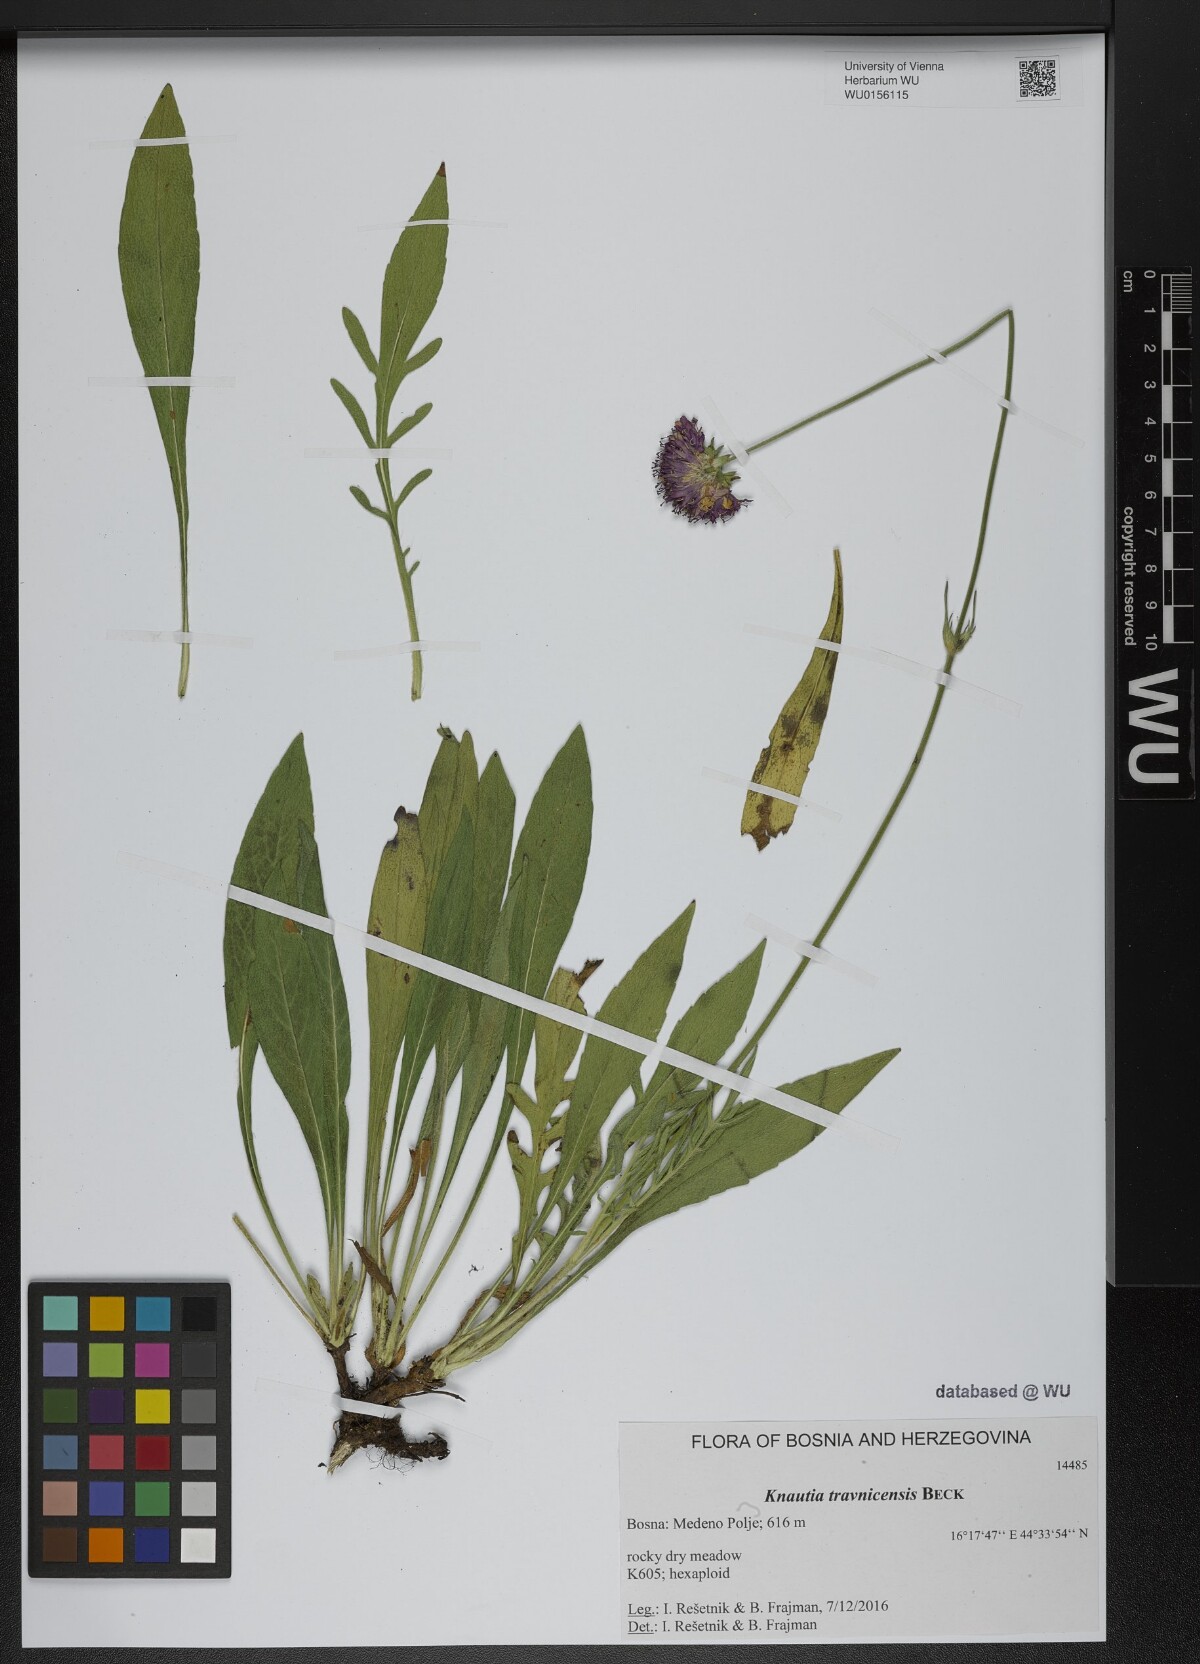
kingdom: Plantae
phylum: Tracheophyta
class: Magnoliopsida
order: Dipsacales
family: Caprifoliaceae
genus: Knautia
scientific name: Knautia travnicensis
